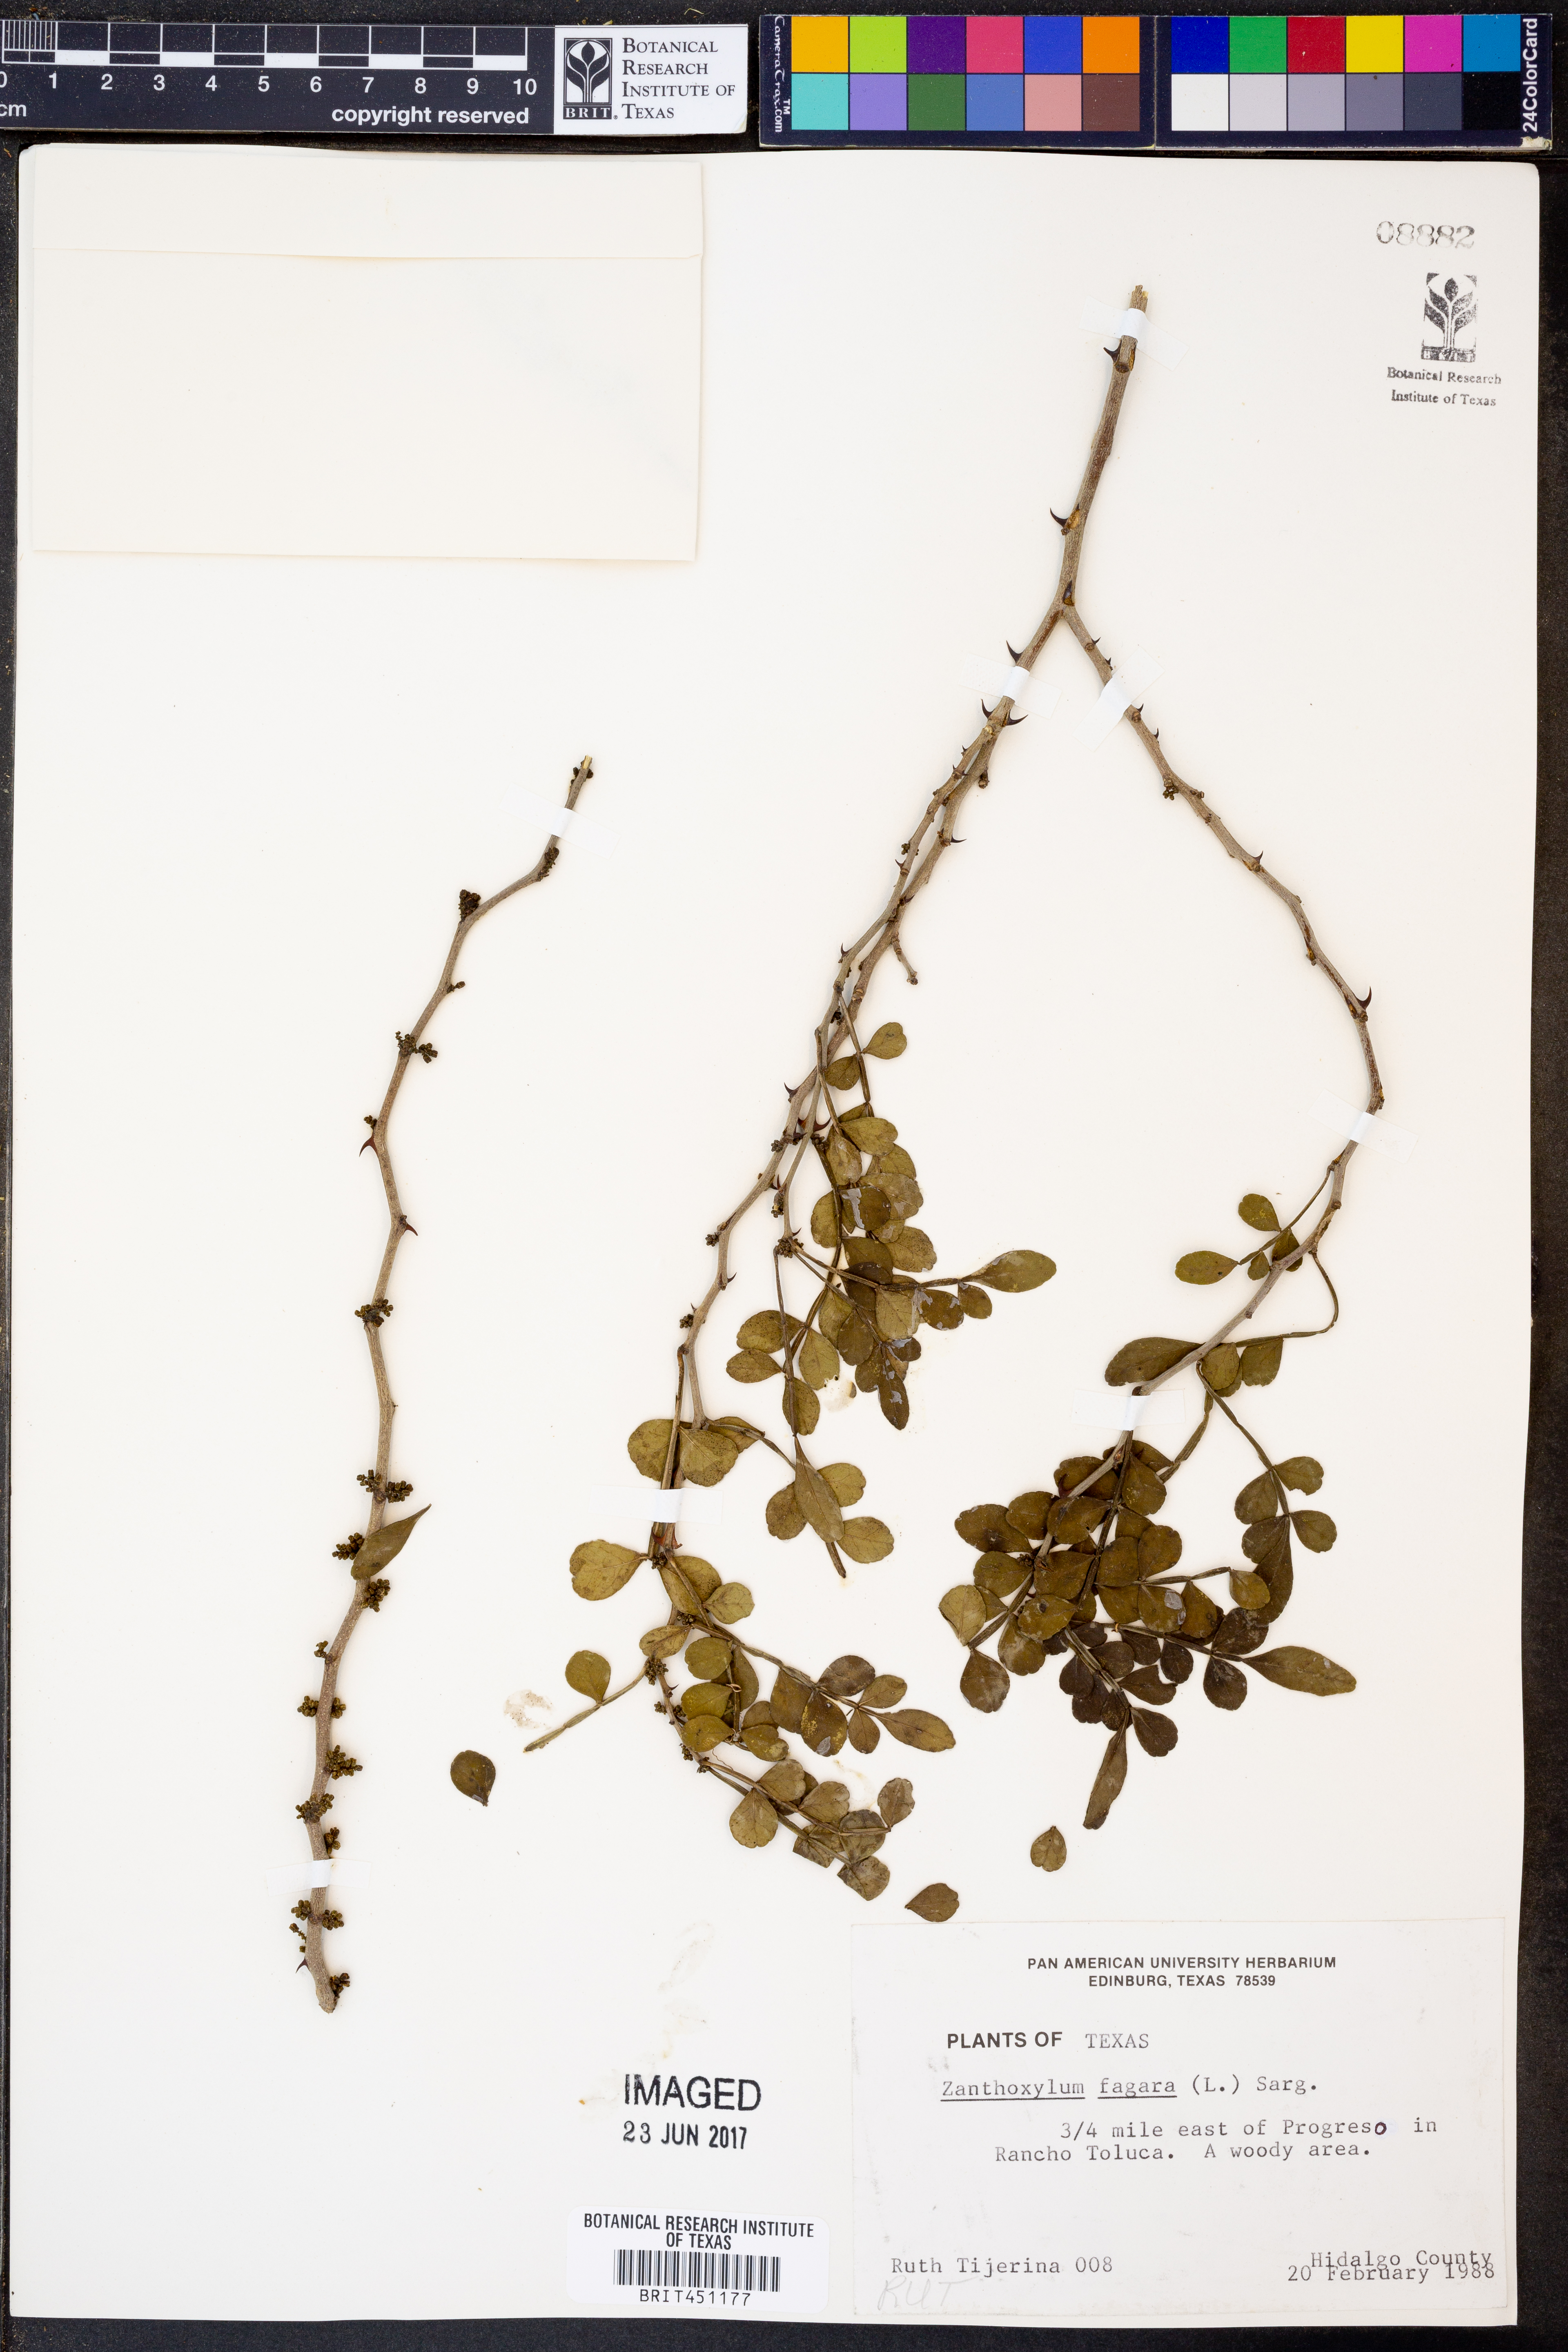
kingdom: Plantae
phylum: Tracheophyta
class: Magnoliopsida
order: Sapindales
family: Rutaceae
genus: Zanthoxylum
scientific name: Zanthoxylum fagara
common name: Lime prickly-ash
